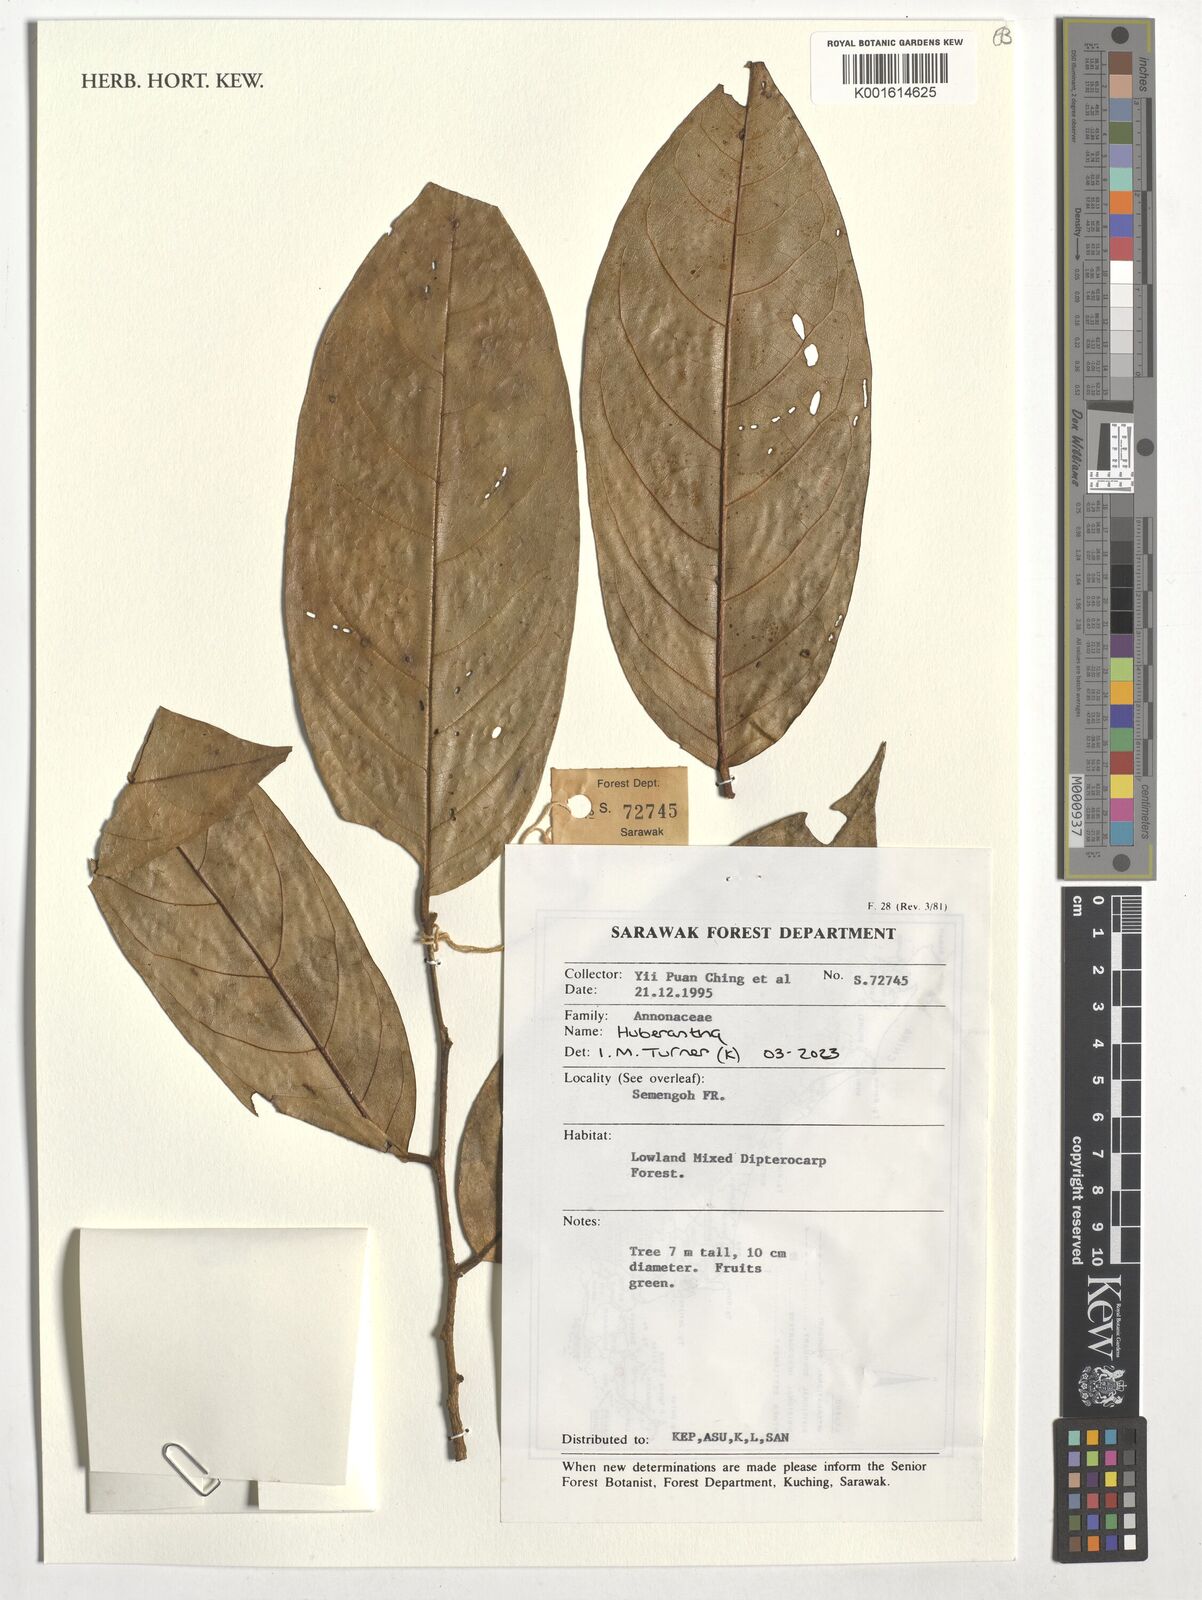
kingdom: Plantae
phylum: Tracheophyta
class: Magnoliopsida
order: Magnoliales
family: Annonaceae
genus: Huberantha
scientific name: Huberantha
